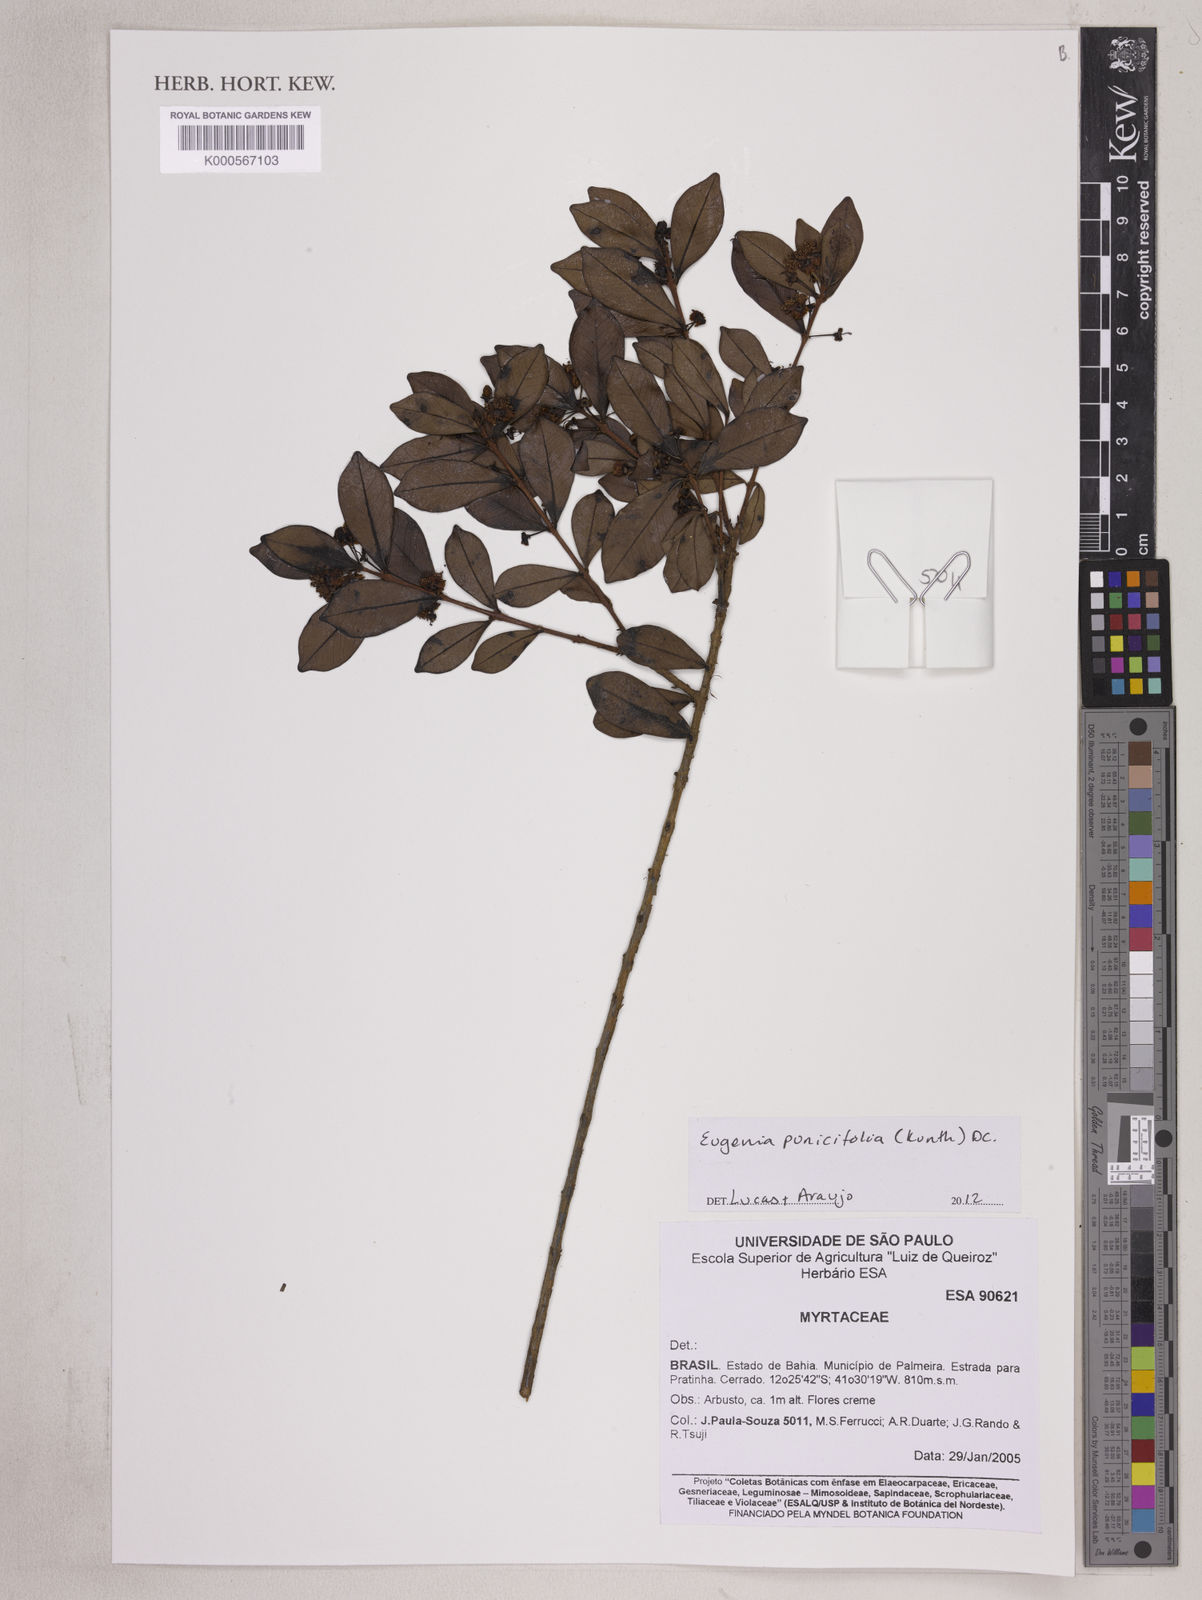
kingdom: Plantae
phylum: Tracheophyta
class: Magnoliopsida
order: Myrtales
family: Myrtaceae
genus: Eugenia
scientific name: Eugenia punicifolia
